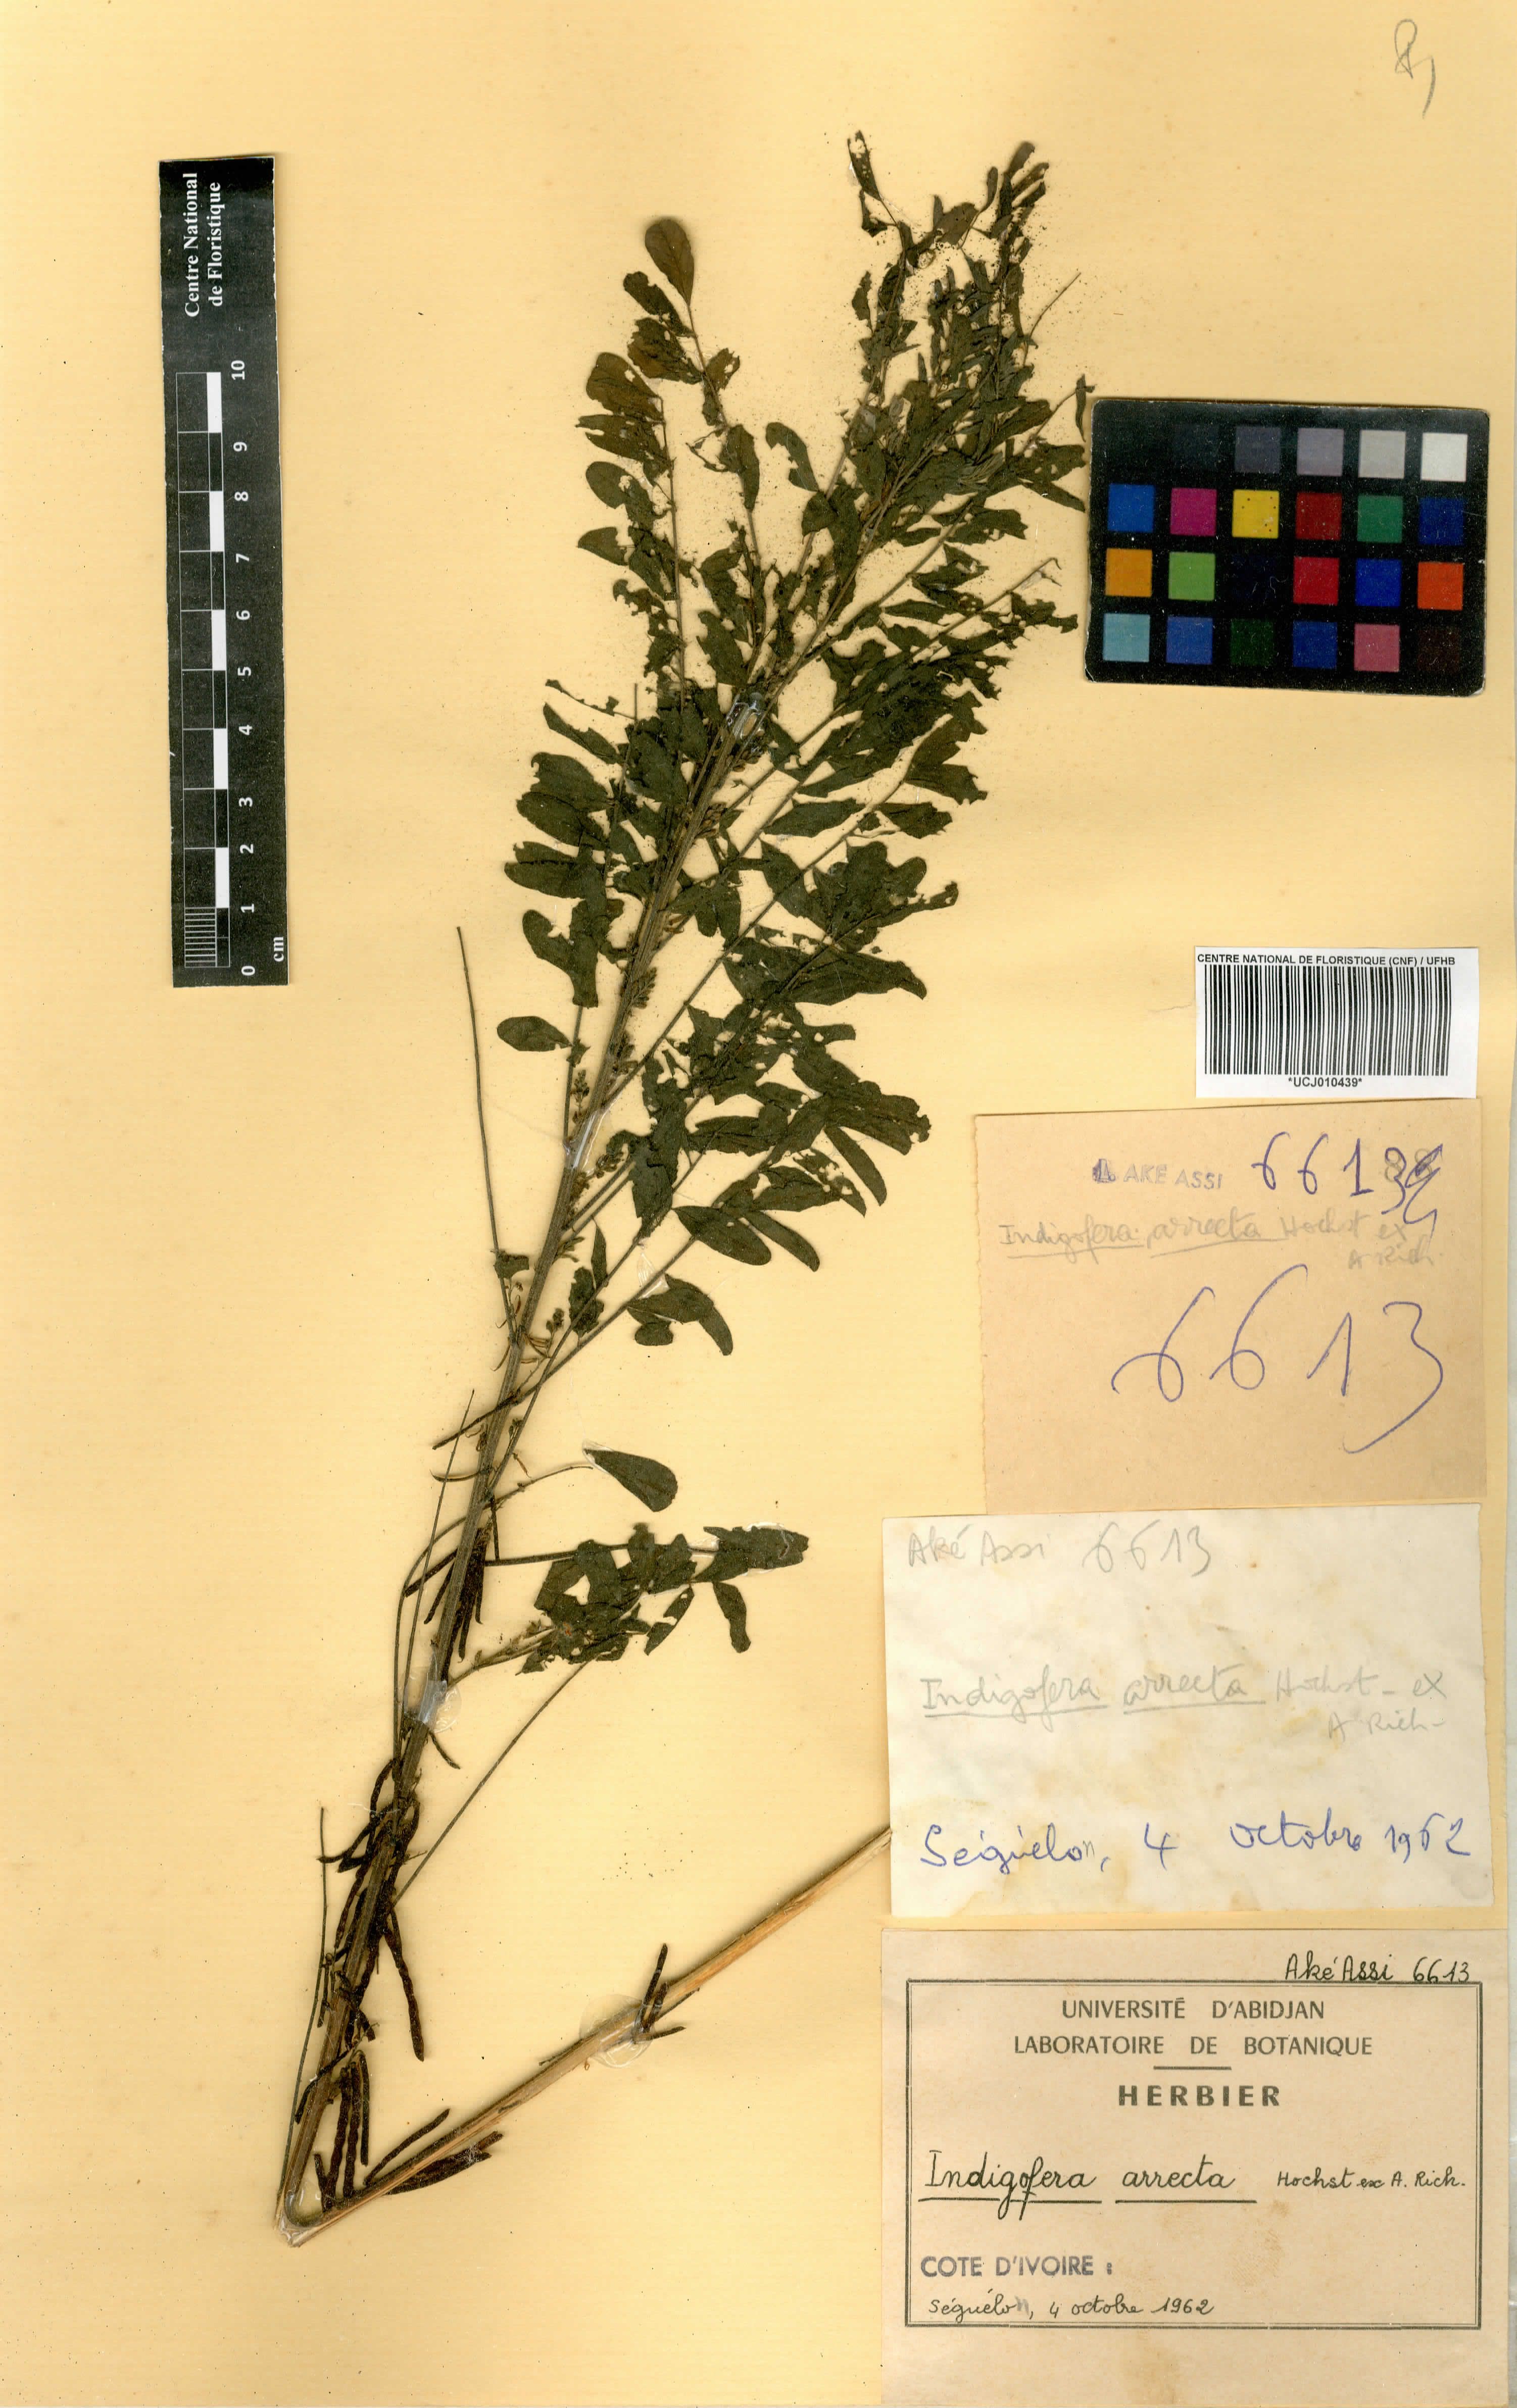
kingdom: Plantae
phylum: Tracheophyta
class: Magnoliopsida
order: Fabales
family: Fabaceae
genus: Indigofera
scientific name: Indigofera arrecta
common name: Bengal indigo
